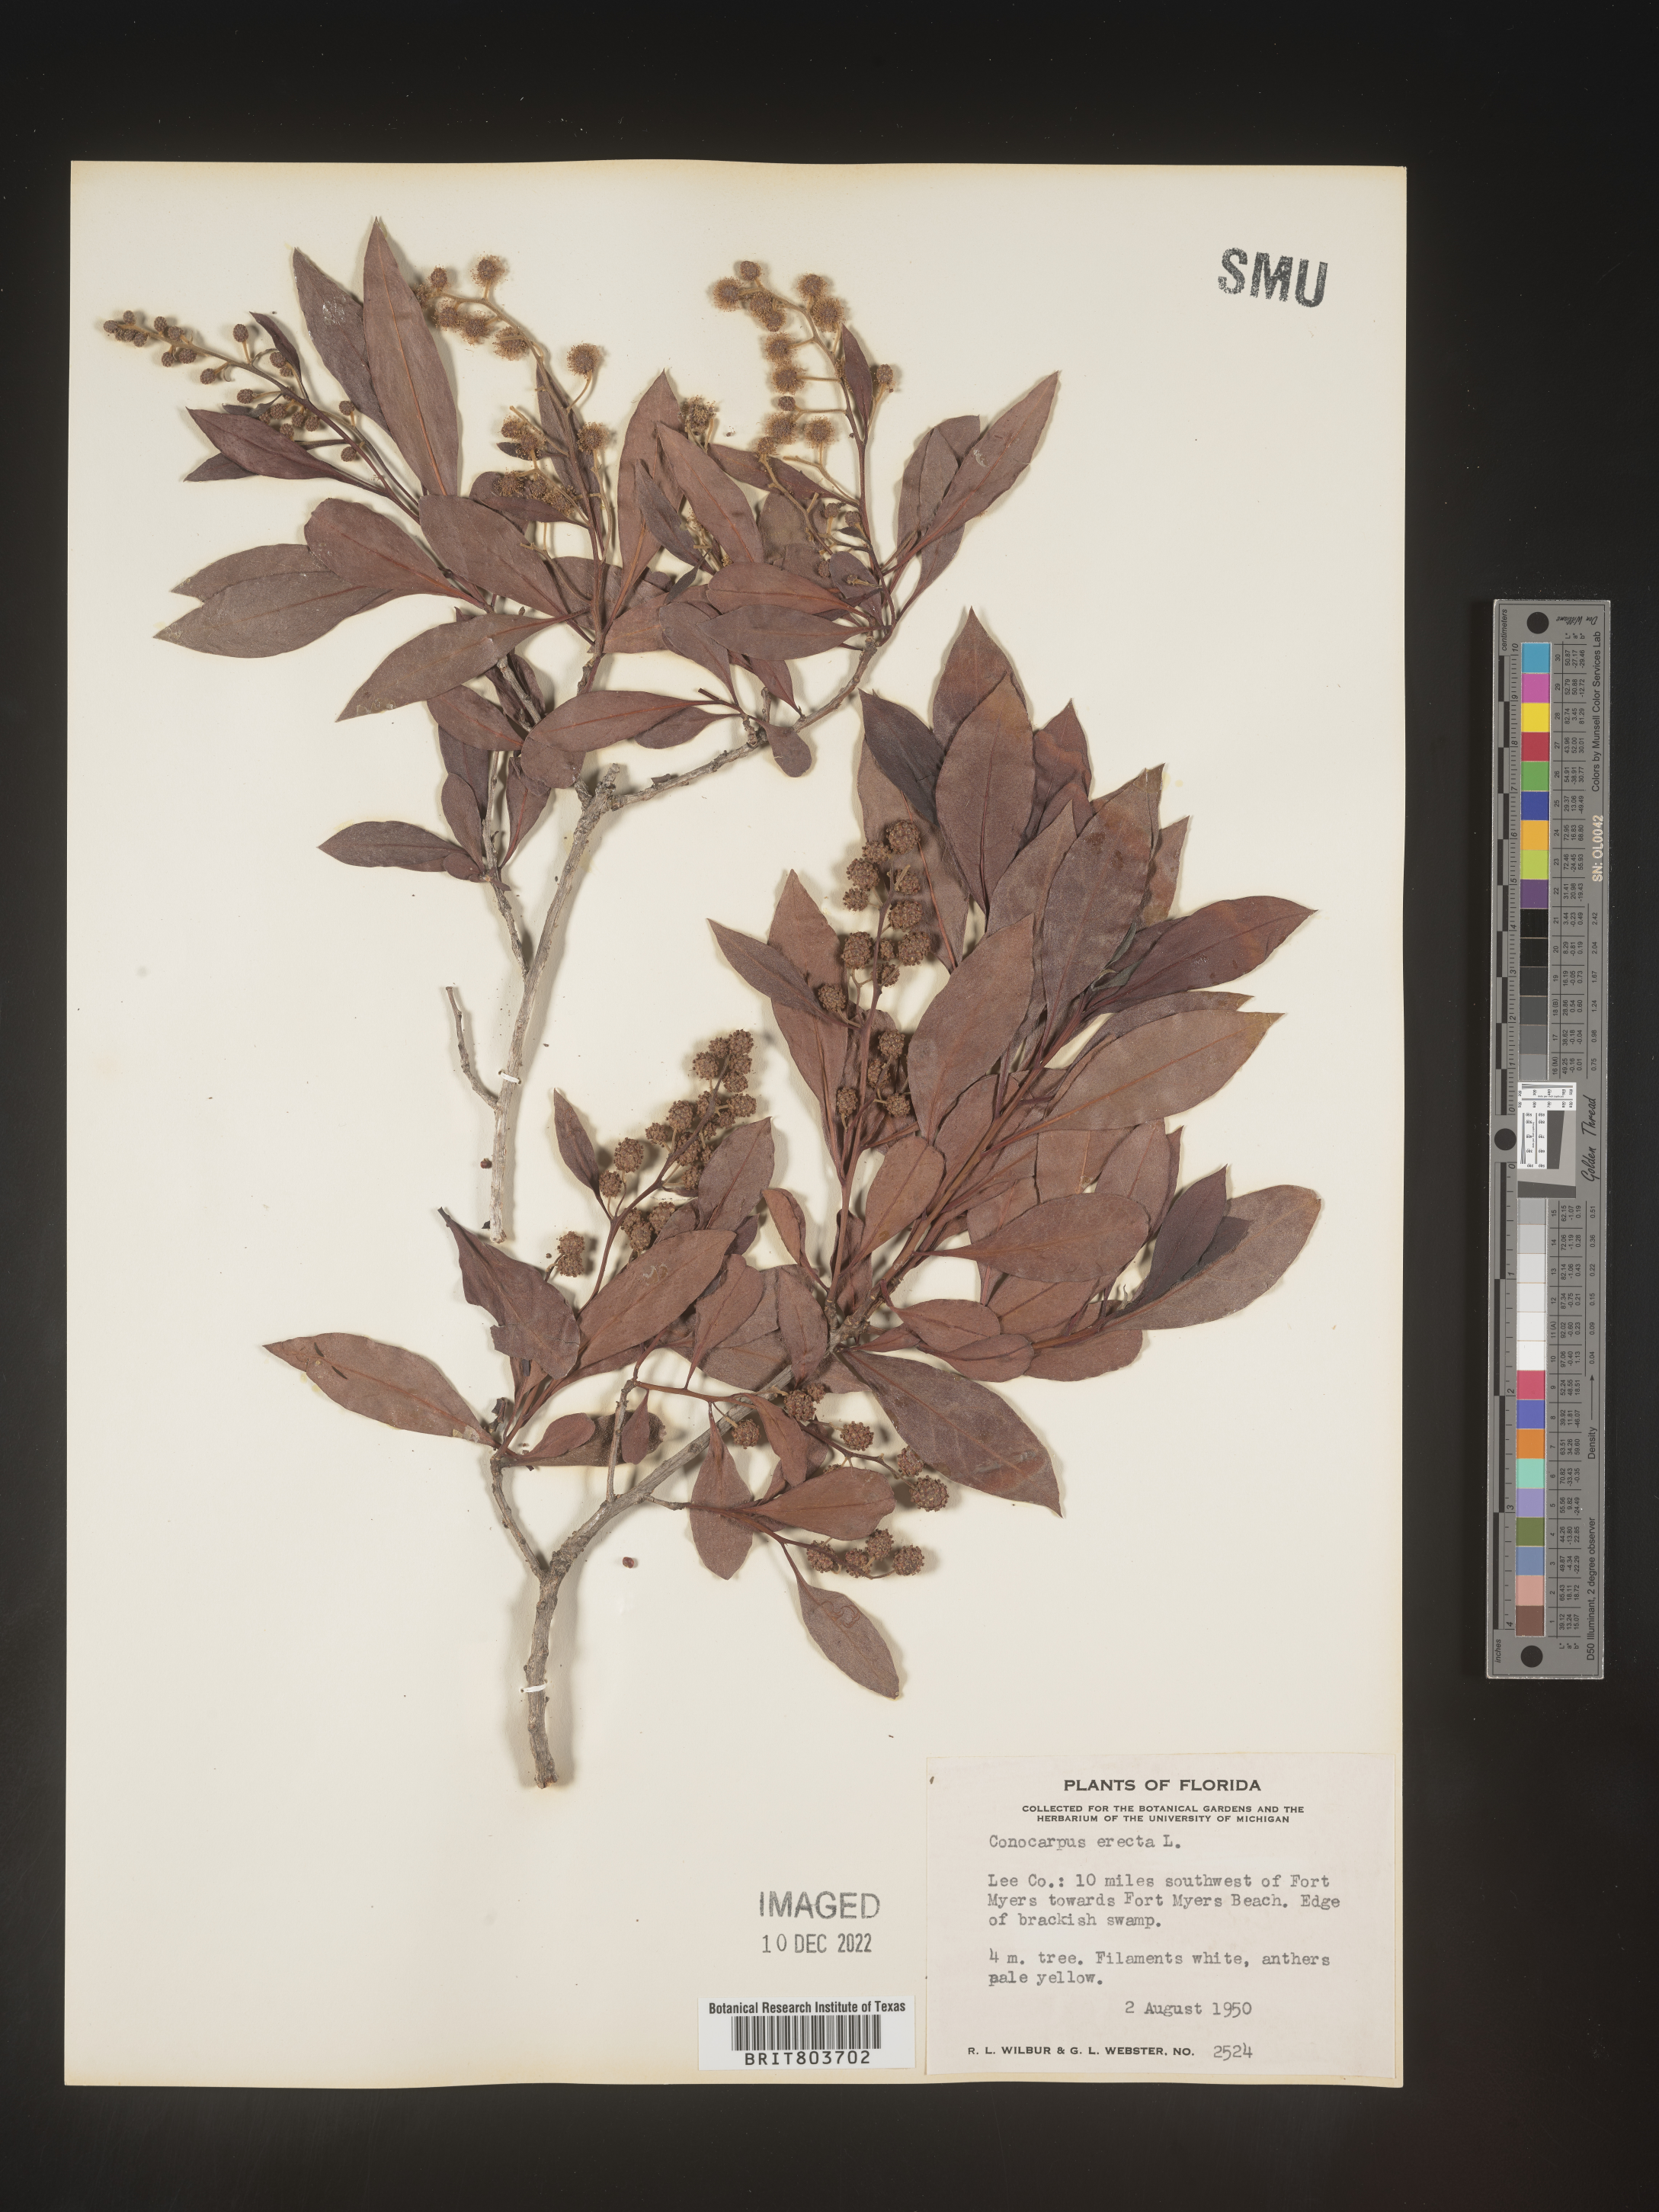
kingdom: Plantae
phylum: Tracheophyta
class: Magnoliopsida
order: Myrtales
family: Combretaceae
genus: Conocarpus
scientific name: Conocarpus erectus
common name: Button mangrove
